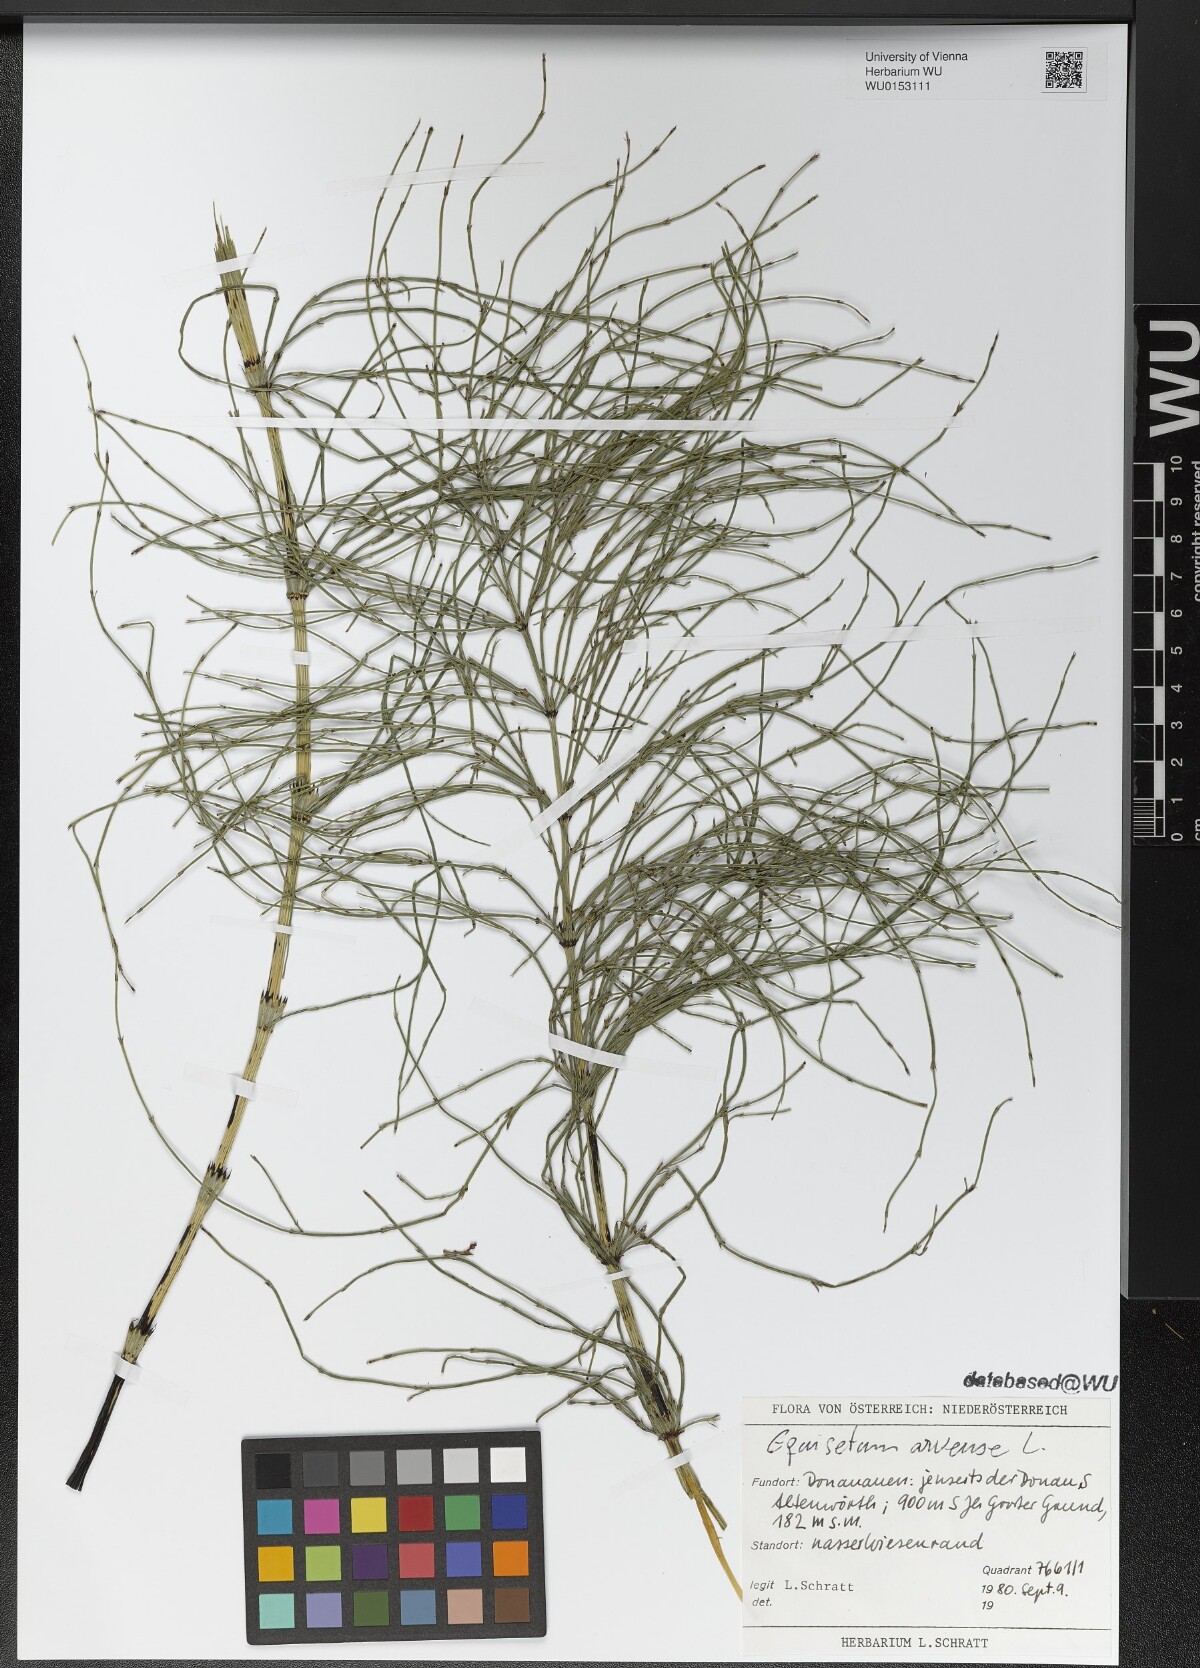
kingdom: Plantae
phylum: Tracheophyta
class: Polypodiopsida
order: Equisetales
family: Equisetaceae
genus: Equisetum
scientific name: Equisetum arvense
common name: Field horsetail
